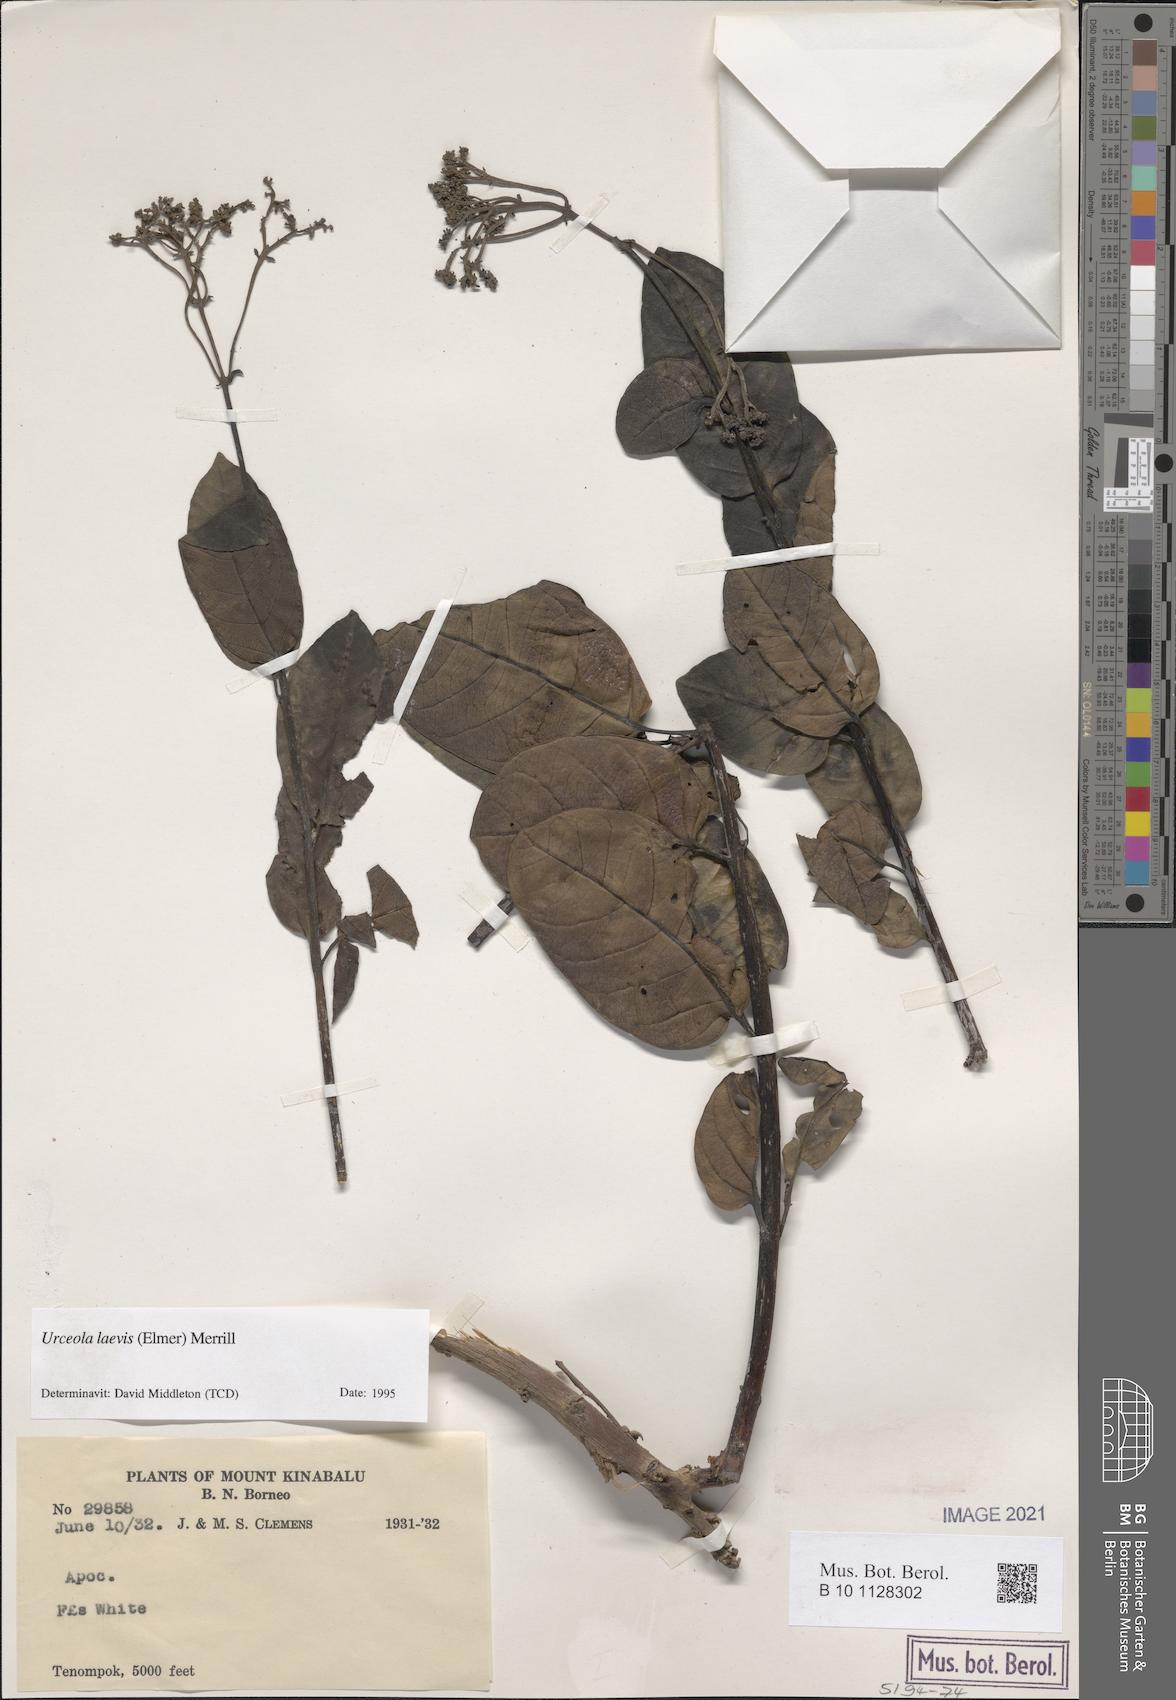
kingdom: Plantae
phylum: Tracheophyta
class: Magnoliopsida
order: Gentianales
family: Apocynaceae
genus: Urceola
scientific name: Urceola laevis
